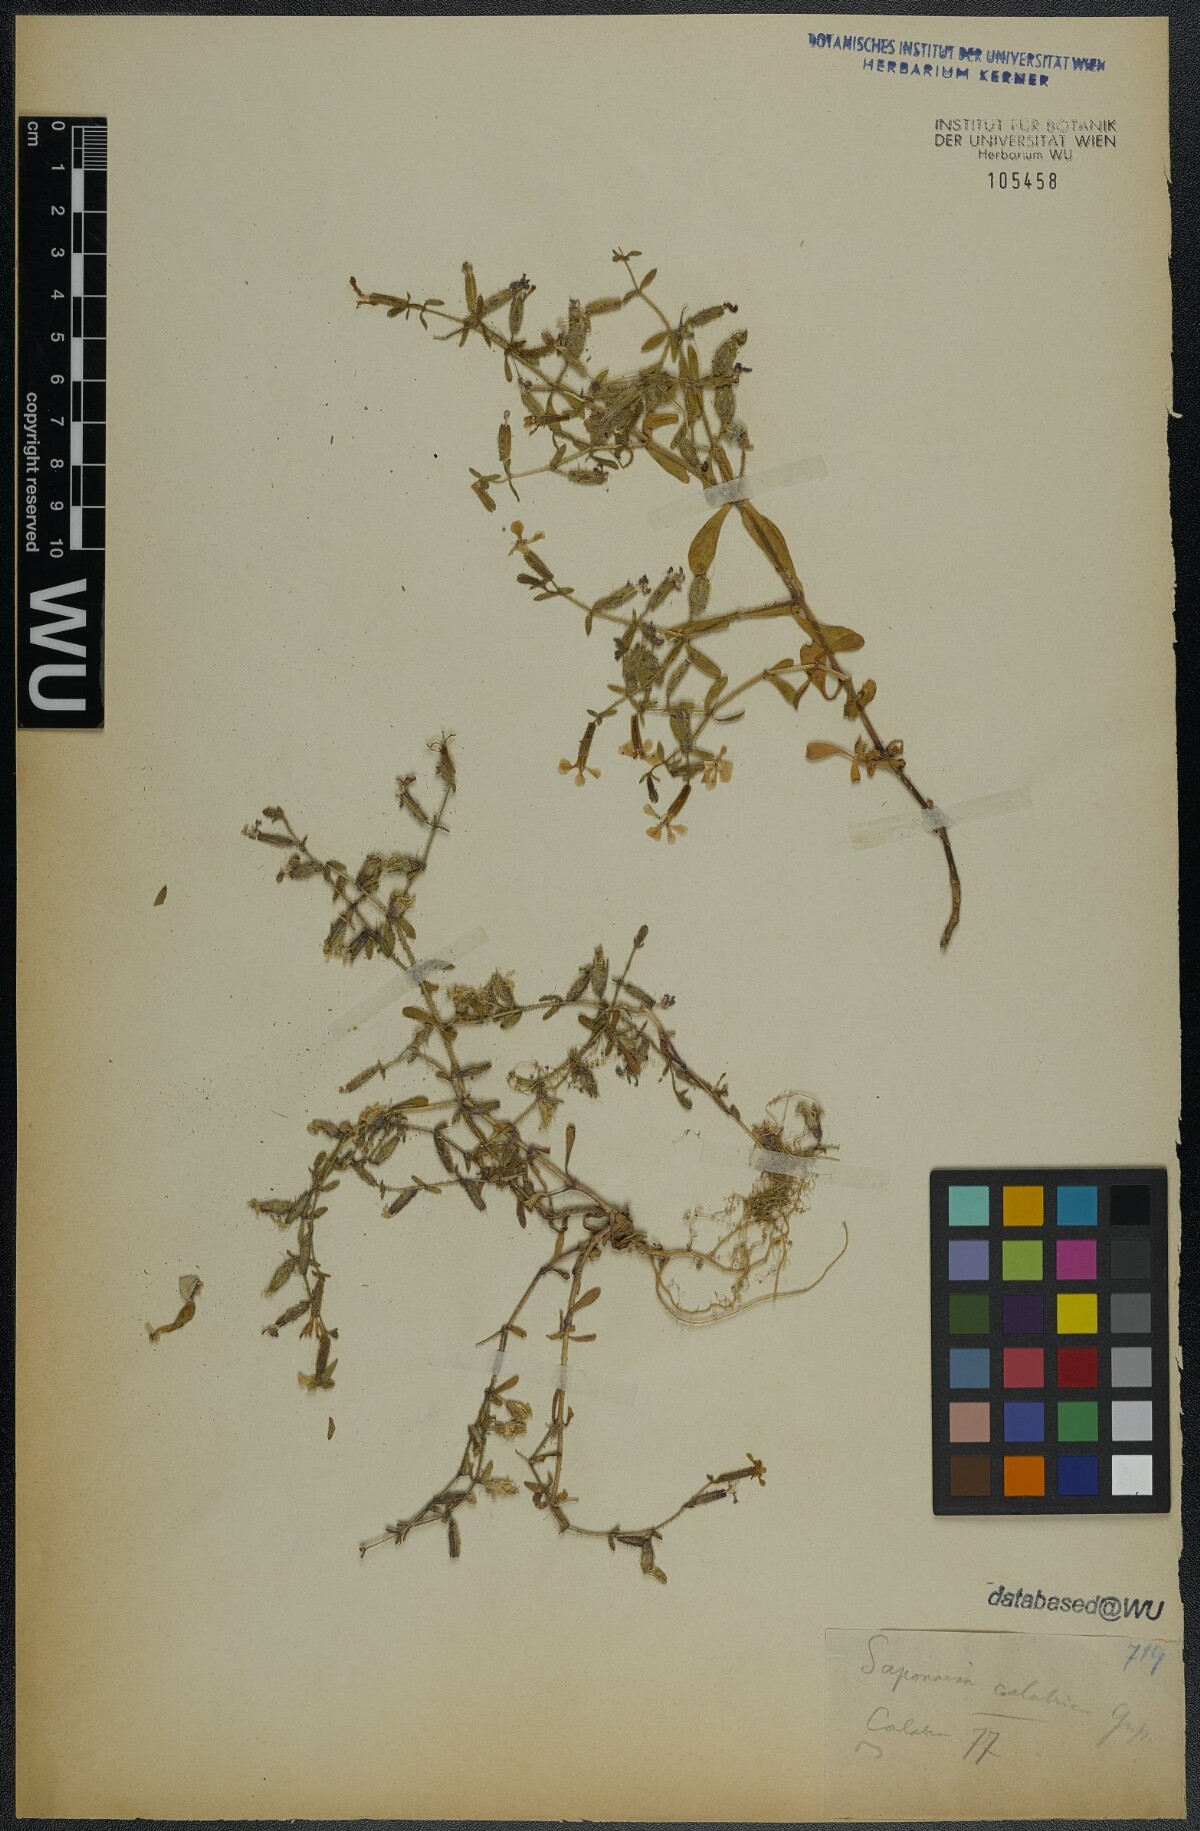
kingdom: Plantae
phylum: Tracheophyta
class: Magnoliopsida
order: Caryophyllales
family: Caryophyllaceae
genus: Saponaria
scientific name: Saponaria calabrica
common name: Adriatic soapwort
